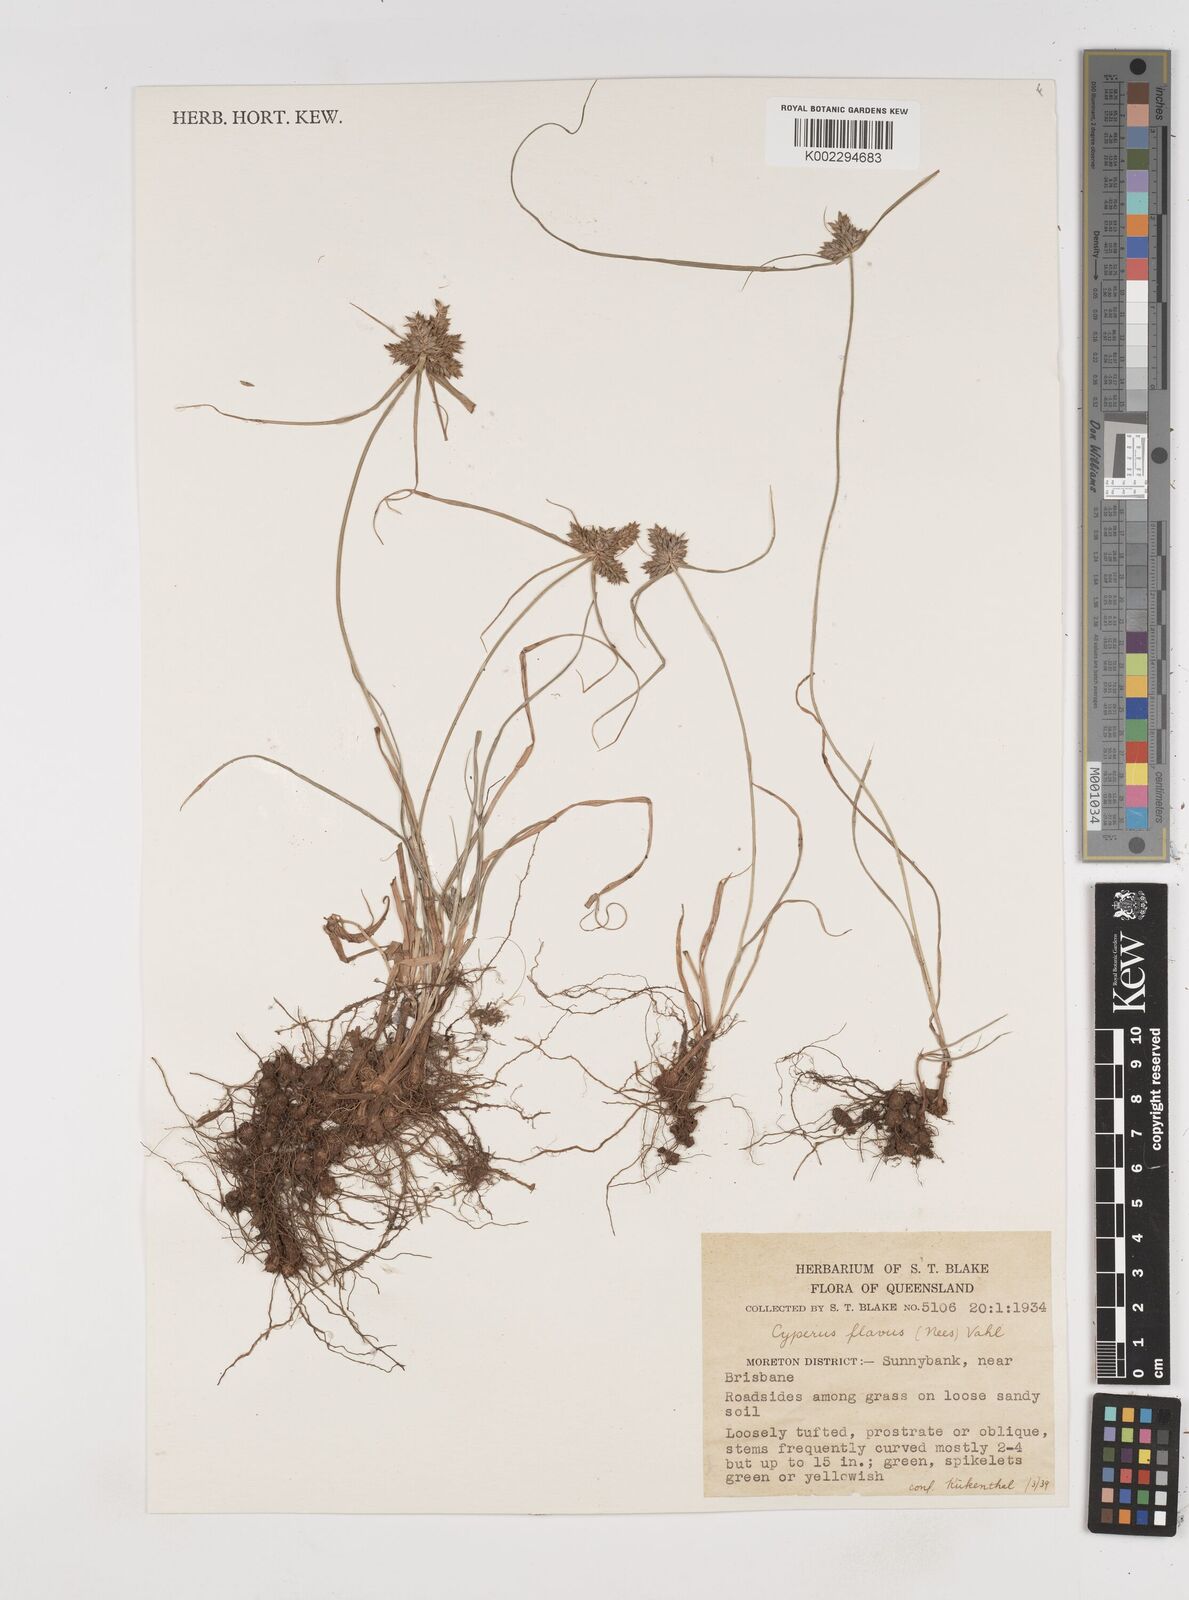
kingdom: Plantae
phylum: Tracheophyta
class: Liliopsida
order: Poales
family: Cyperaceae
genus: Cyperus
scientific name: Cyperus aggregatus
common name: Inflatedscale flatsedge
